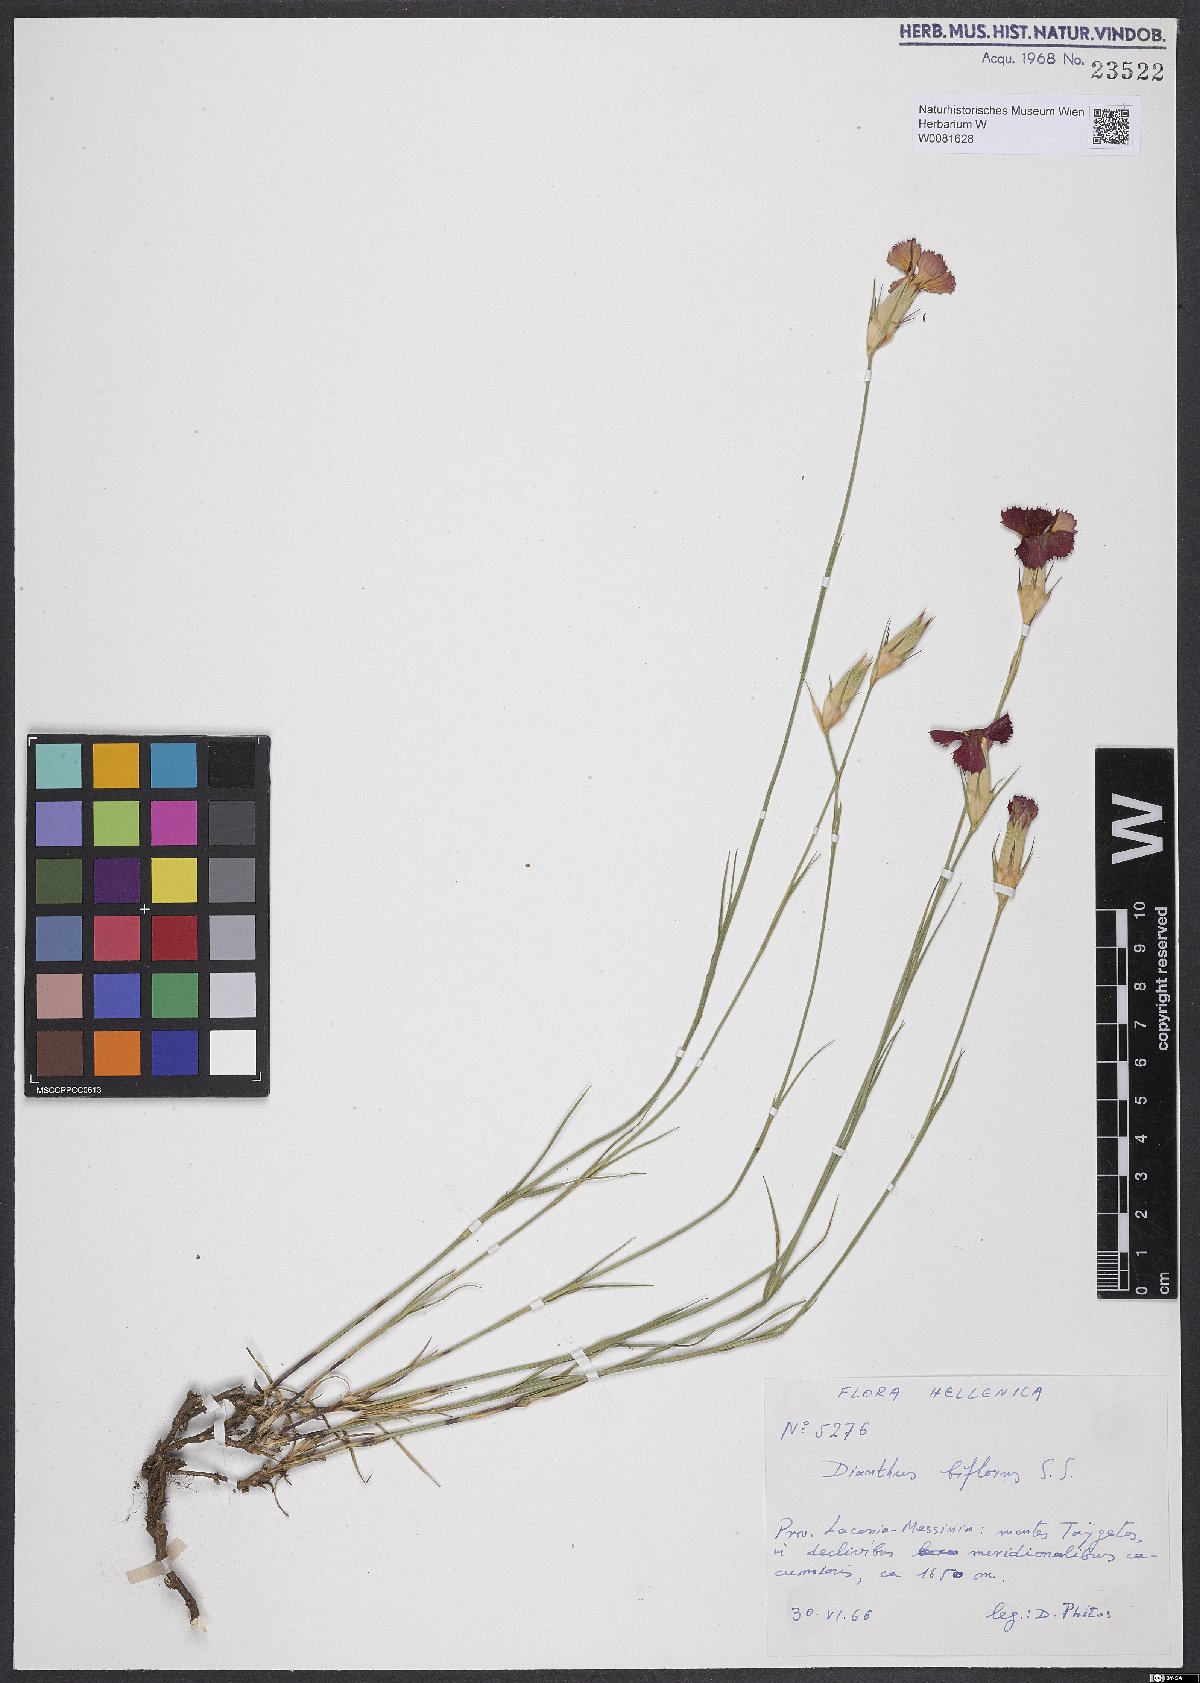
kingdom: Plantae
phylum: Tracheophyta
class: Magnoliopsida
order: Caryophyllales
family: Caryophyllaceae
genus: Dianthus
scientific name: Dianthus biflorus
